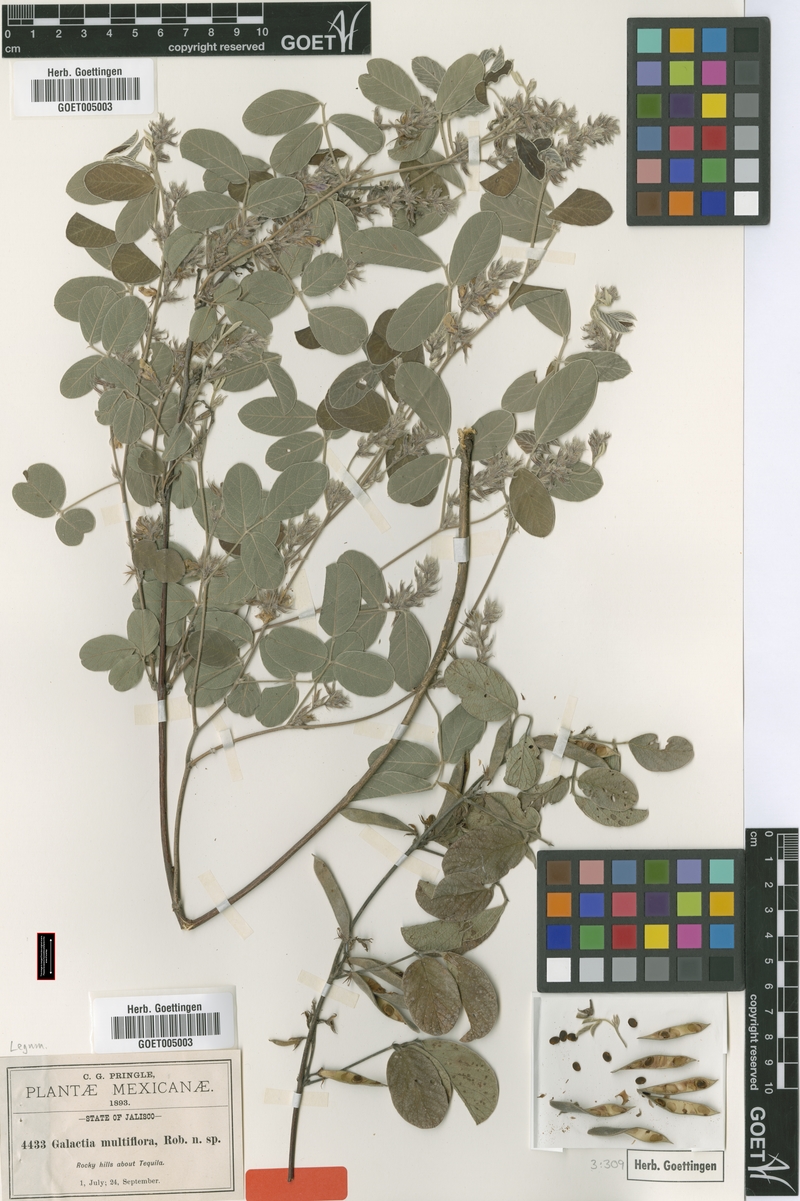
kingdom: Plantae
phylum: Tracheophyta
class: Magnoliopsida
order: Fabales
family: Fabaceae
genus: Galactia
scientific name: Galactia multiflora
